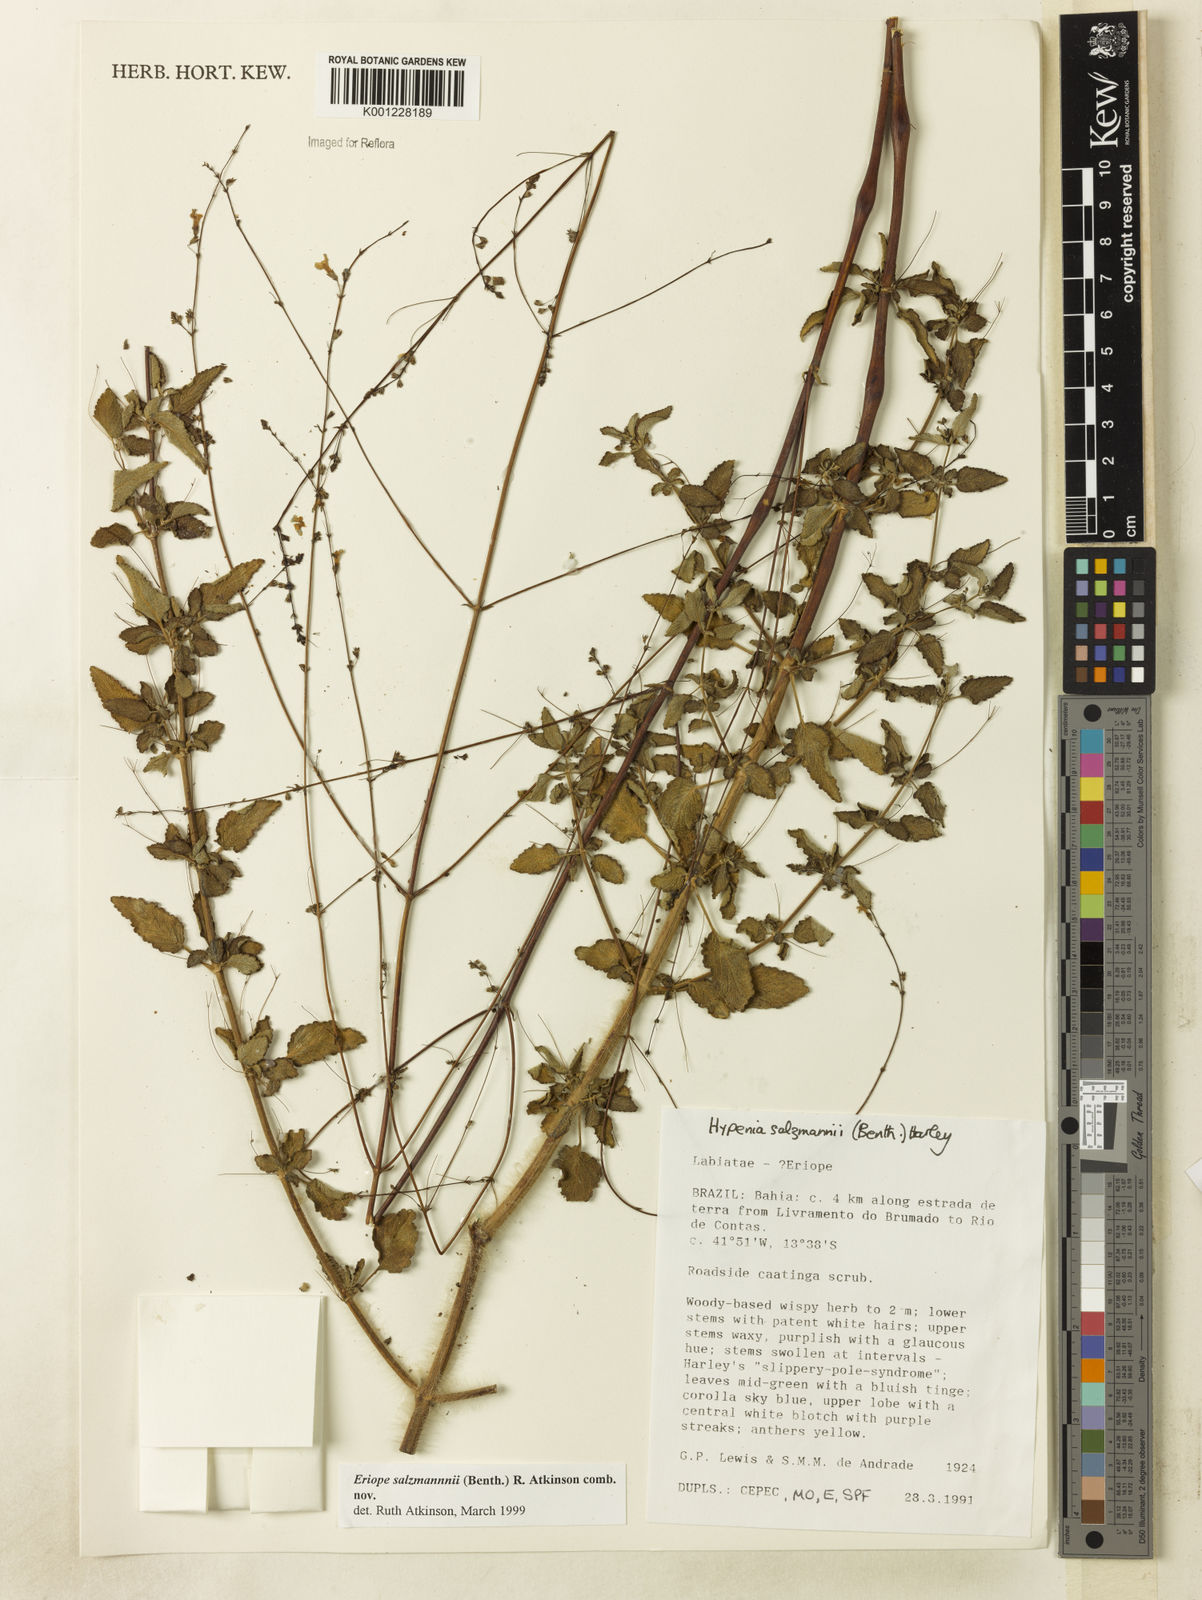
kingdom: Plantae
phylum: Tracheophyta
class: Magnoliopsida
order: Lamiales
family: Lamiaceae
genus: Hypenia
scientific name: Hypenia salzmannii
